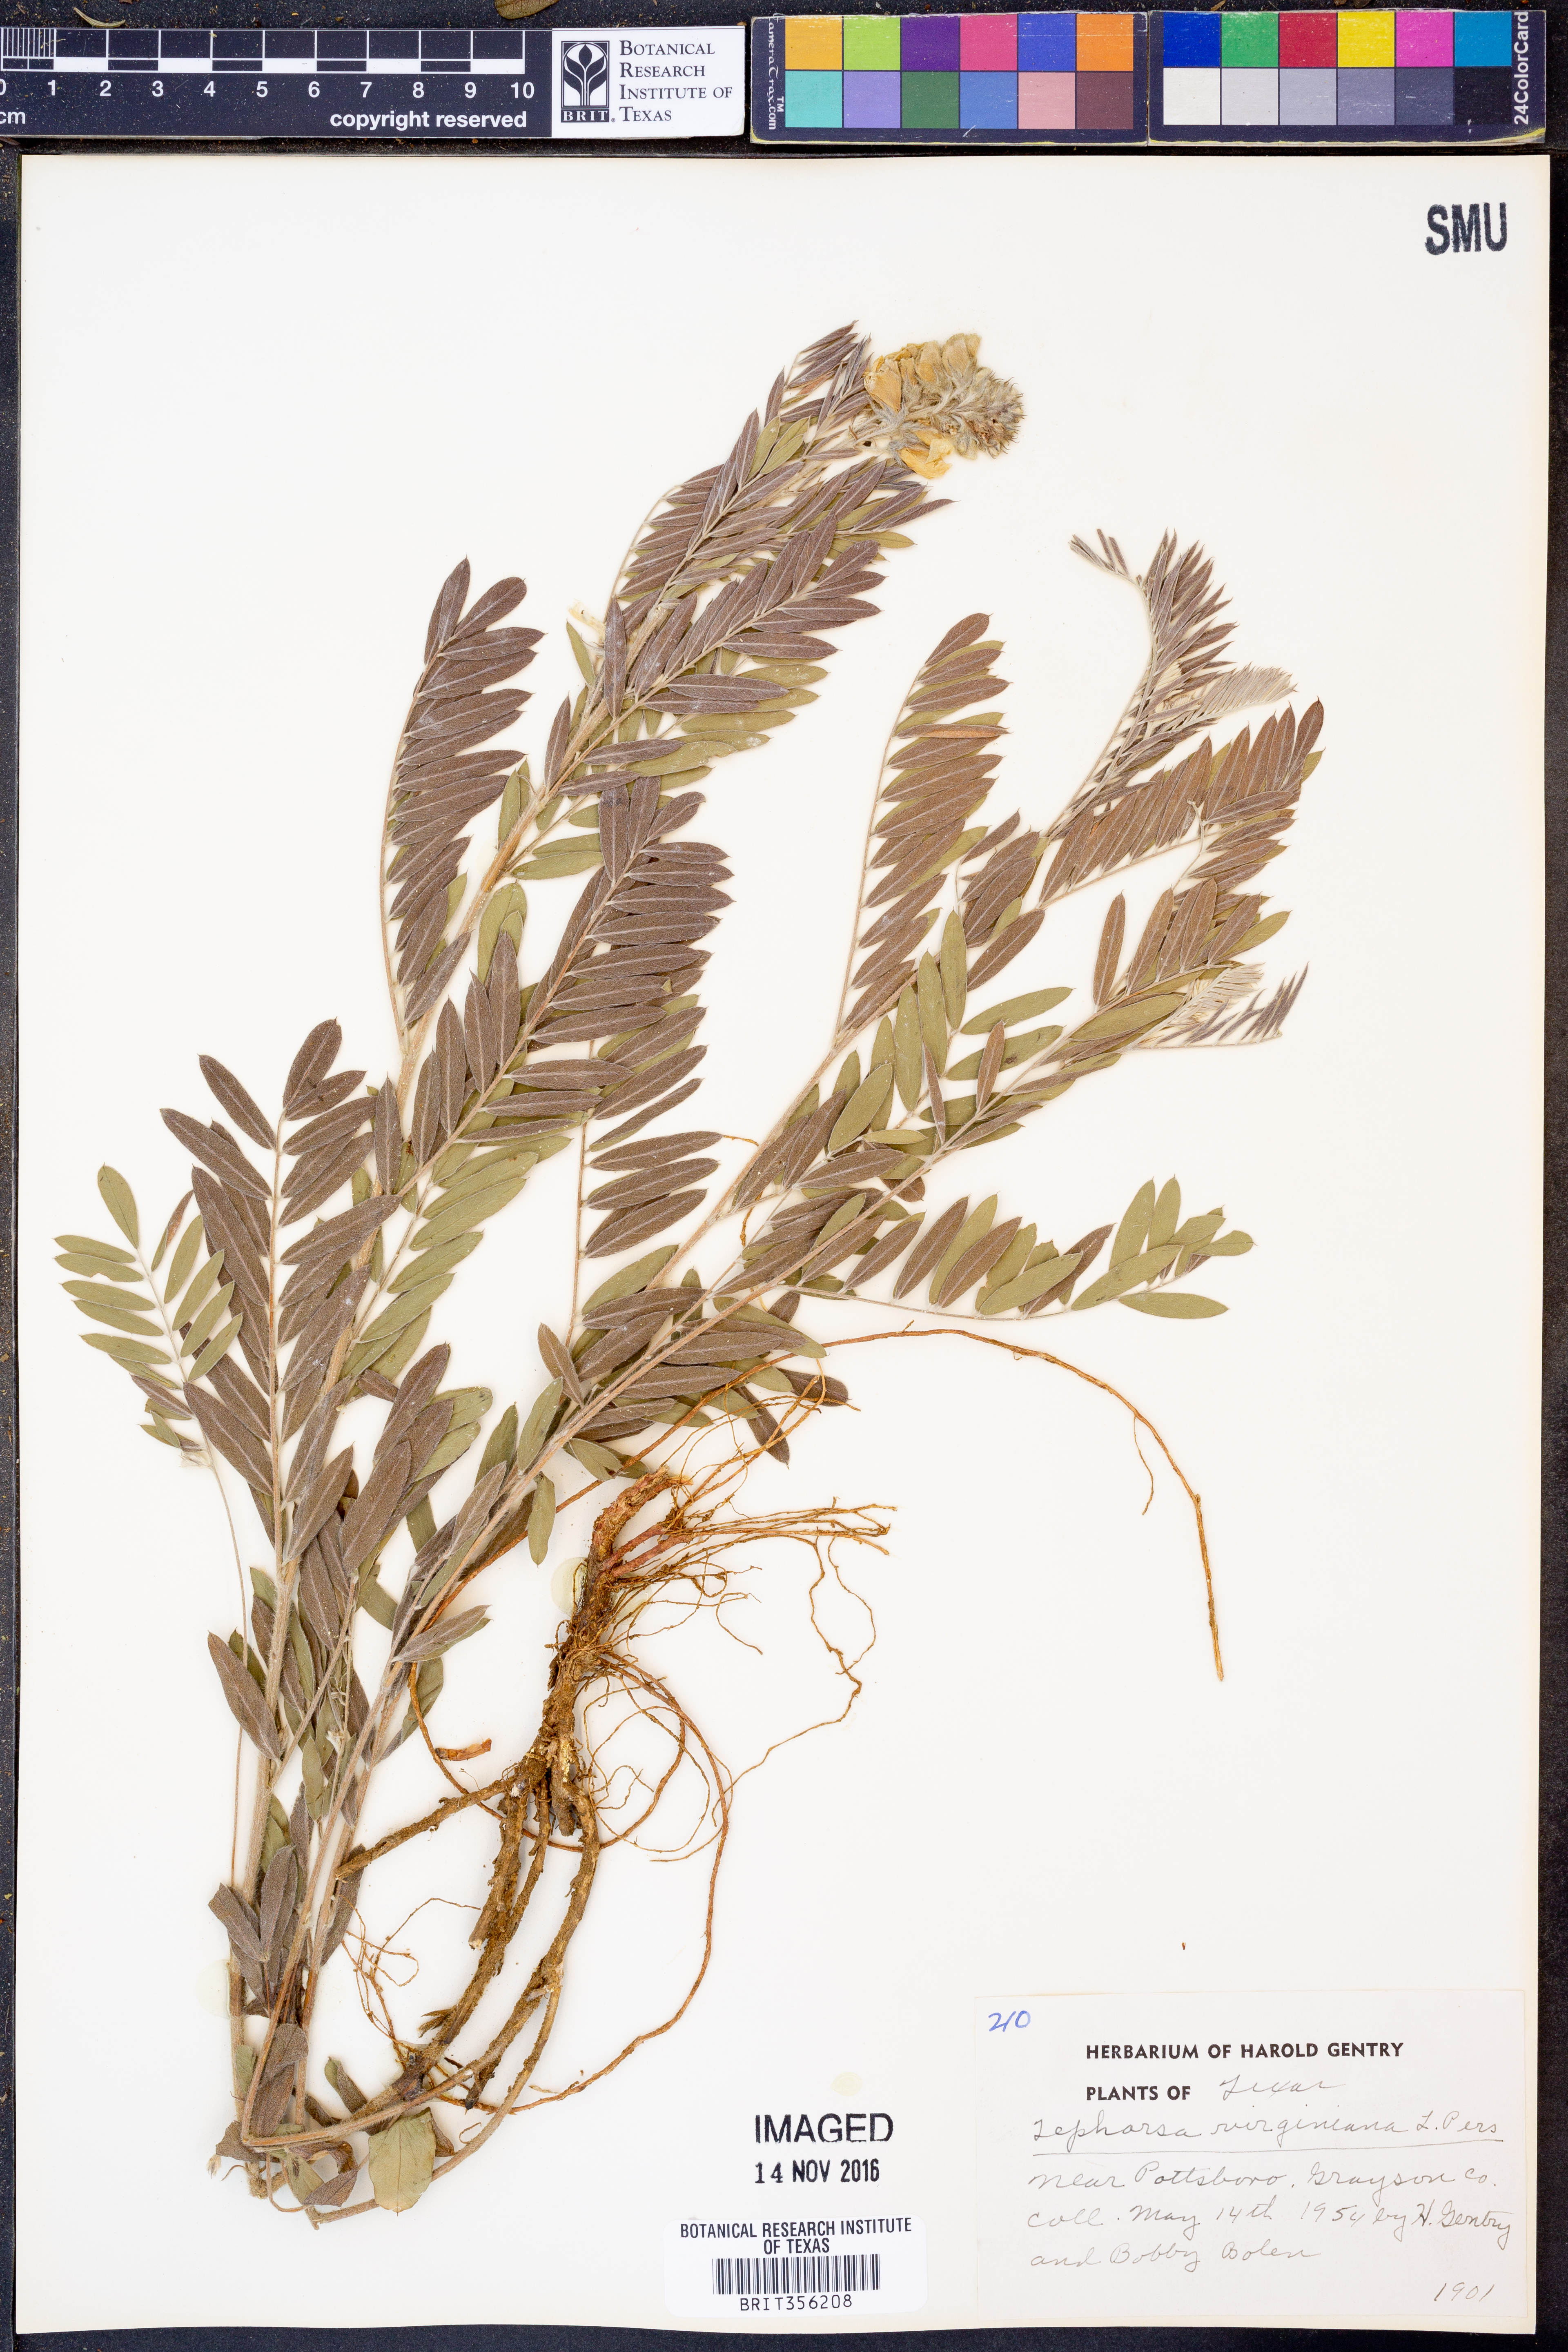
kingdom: Plantae
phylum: Tracheophyta
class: Magnoliopsida
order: Fabales
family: Fabaceae
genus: Tephrosia
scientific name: Tephrosia virginiana
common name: Rabbit-pea
